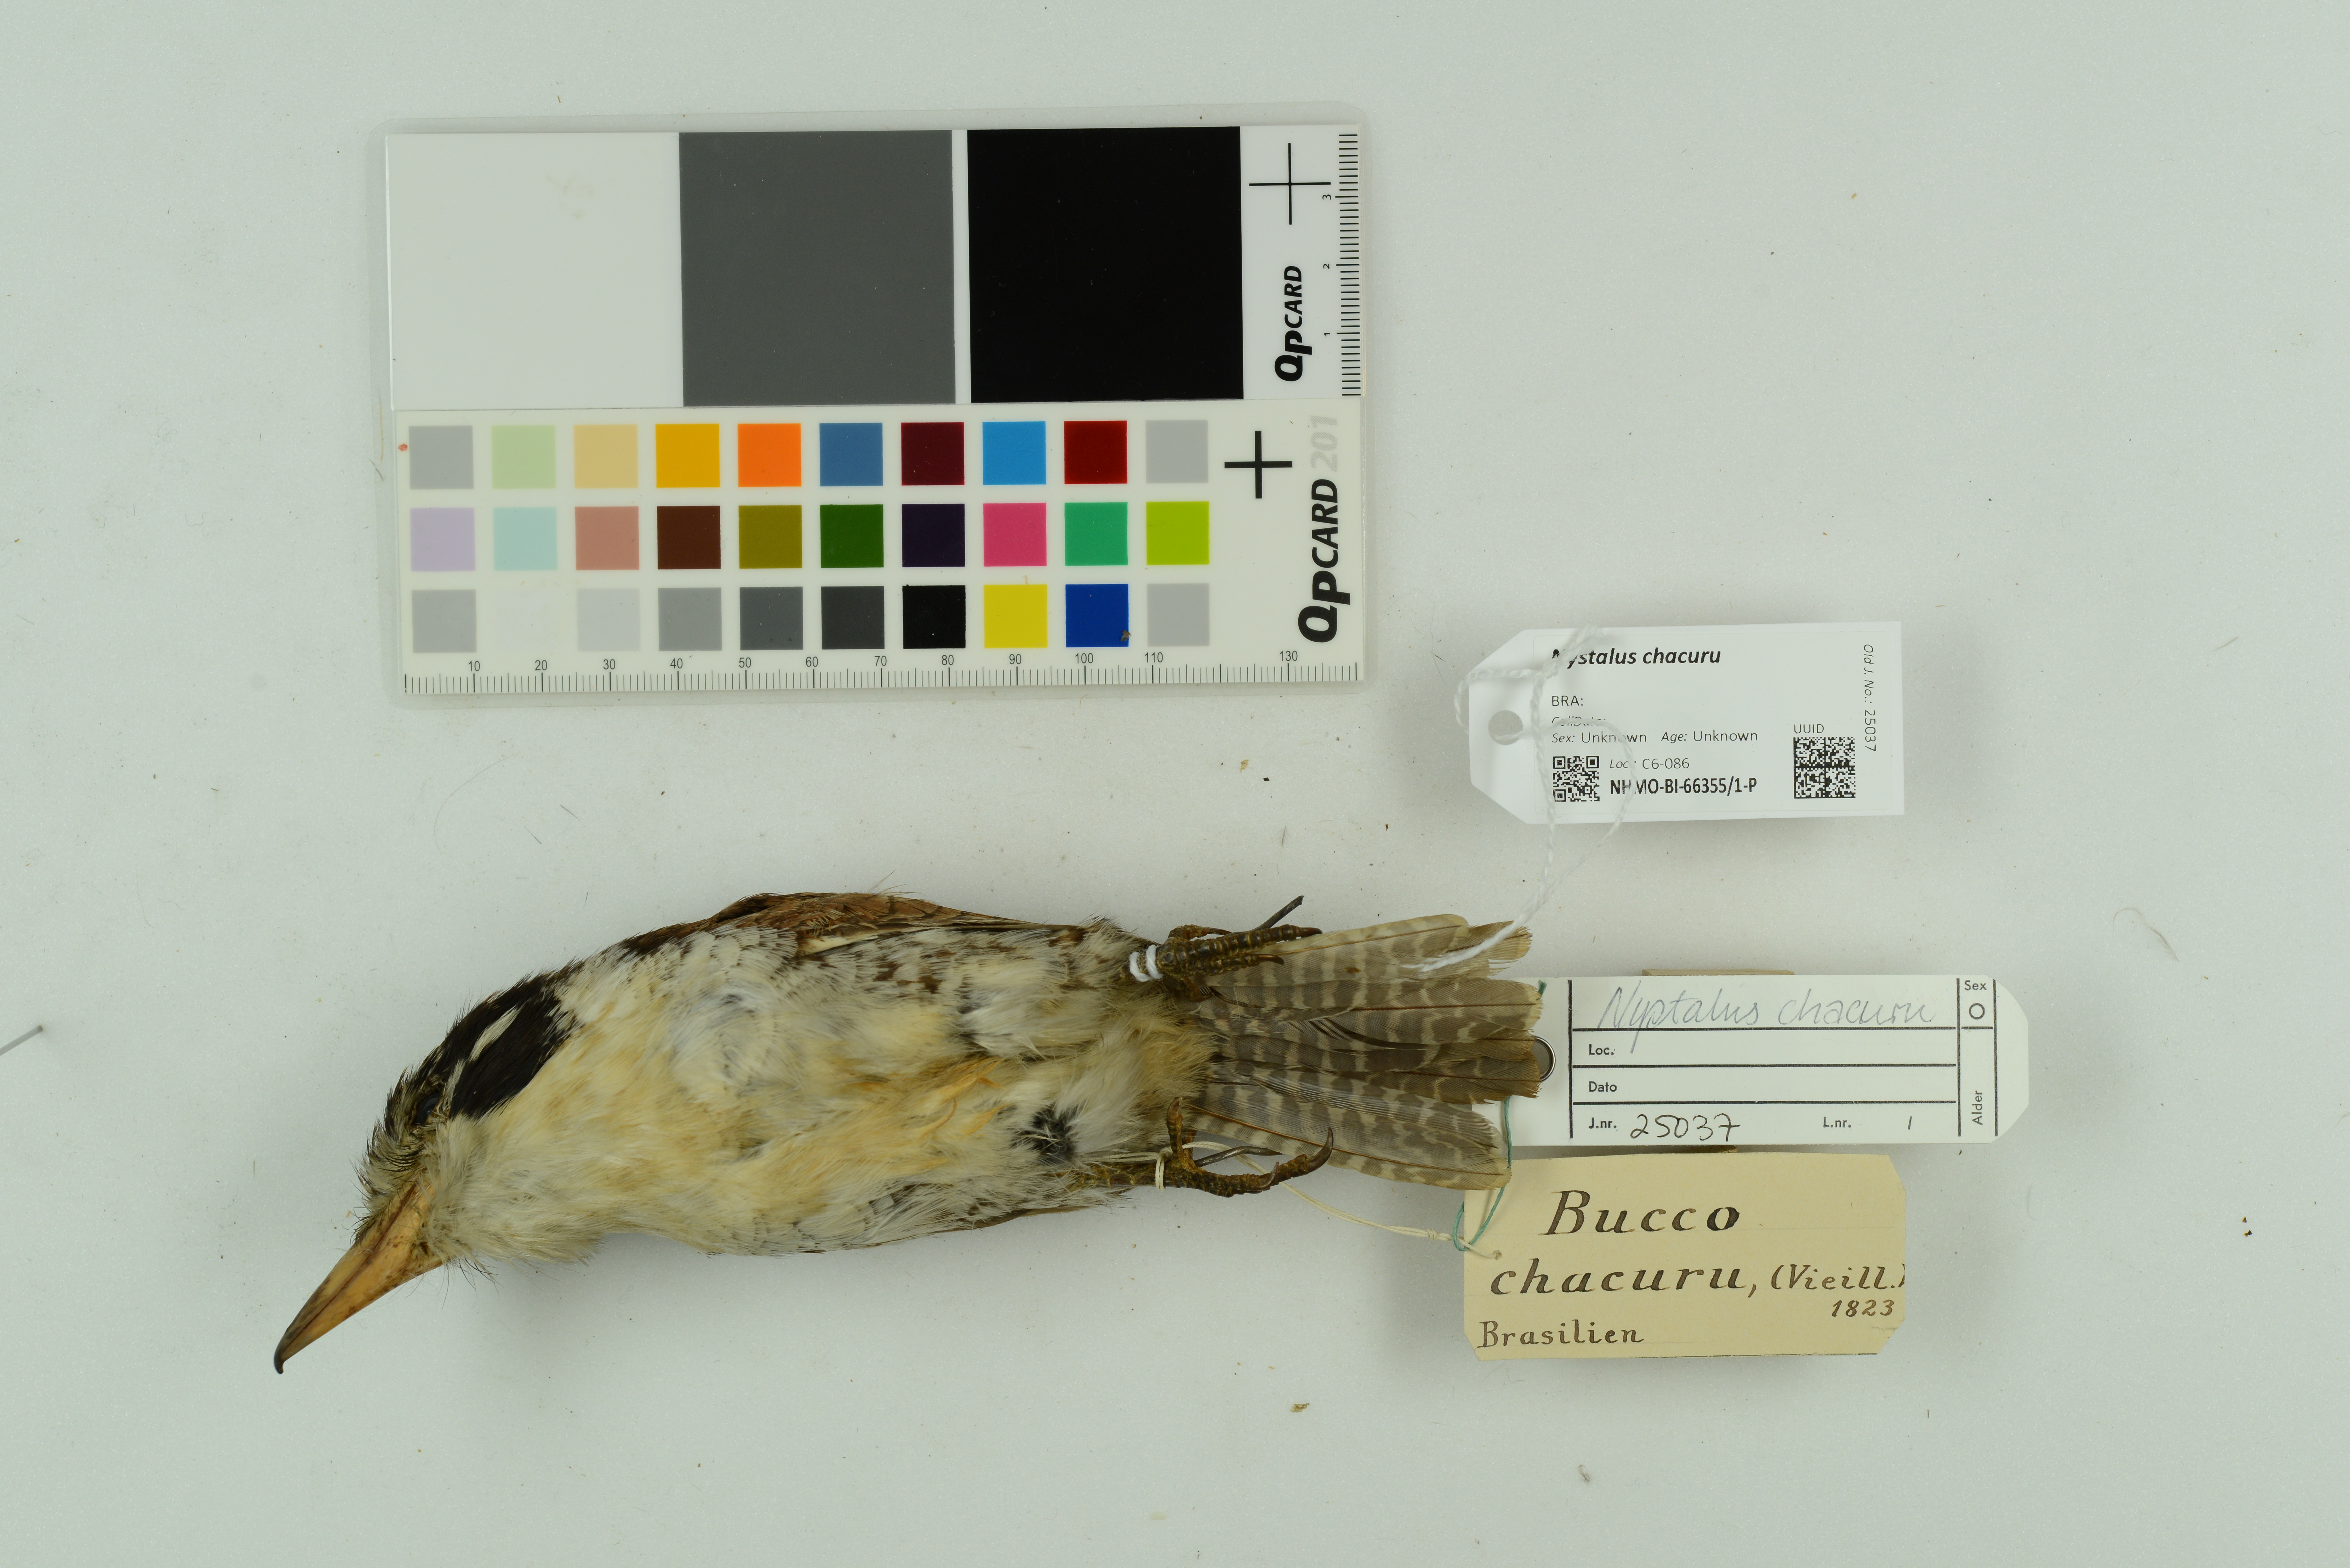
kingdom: Animalia
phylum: Chordata
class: Aves
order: Piciformes
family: Bucconidae
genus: Nystalus
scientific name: Nystalus chacuru
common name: White-eared puffbird
